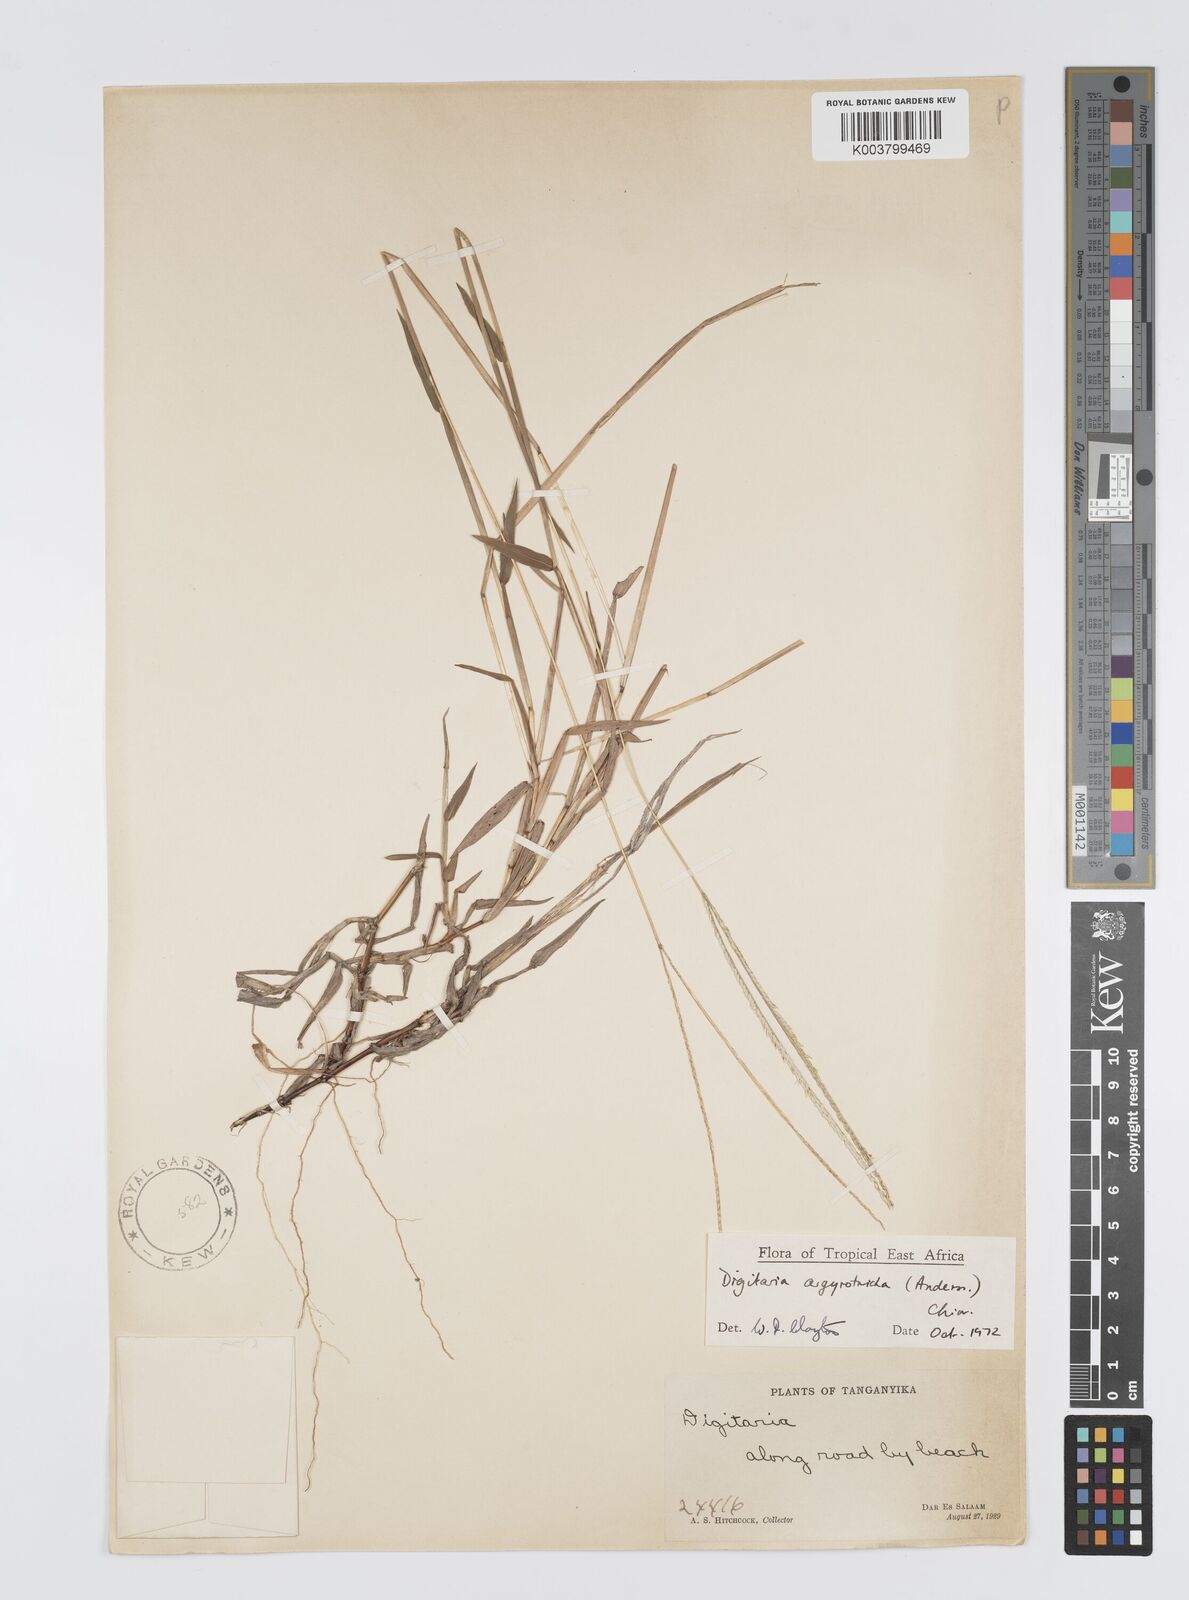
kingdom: Plantae
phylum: Tracheophyta
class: Liliopsida
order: Poales
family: Poaceae
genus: Digitaria
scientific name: Digitaria argyrotricha
